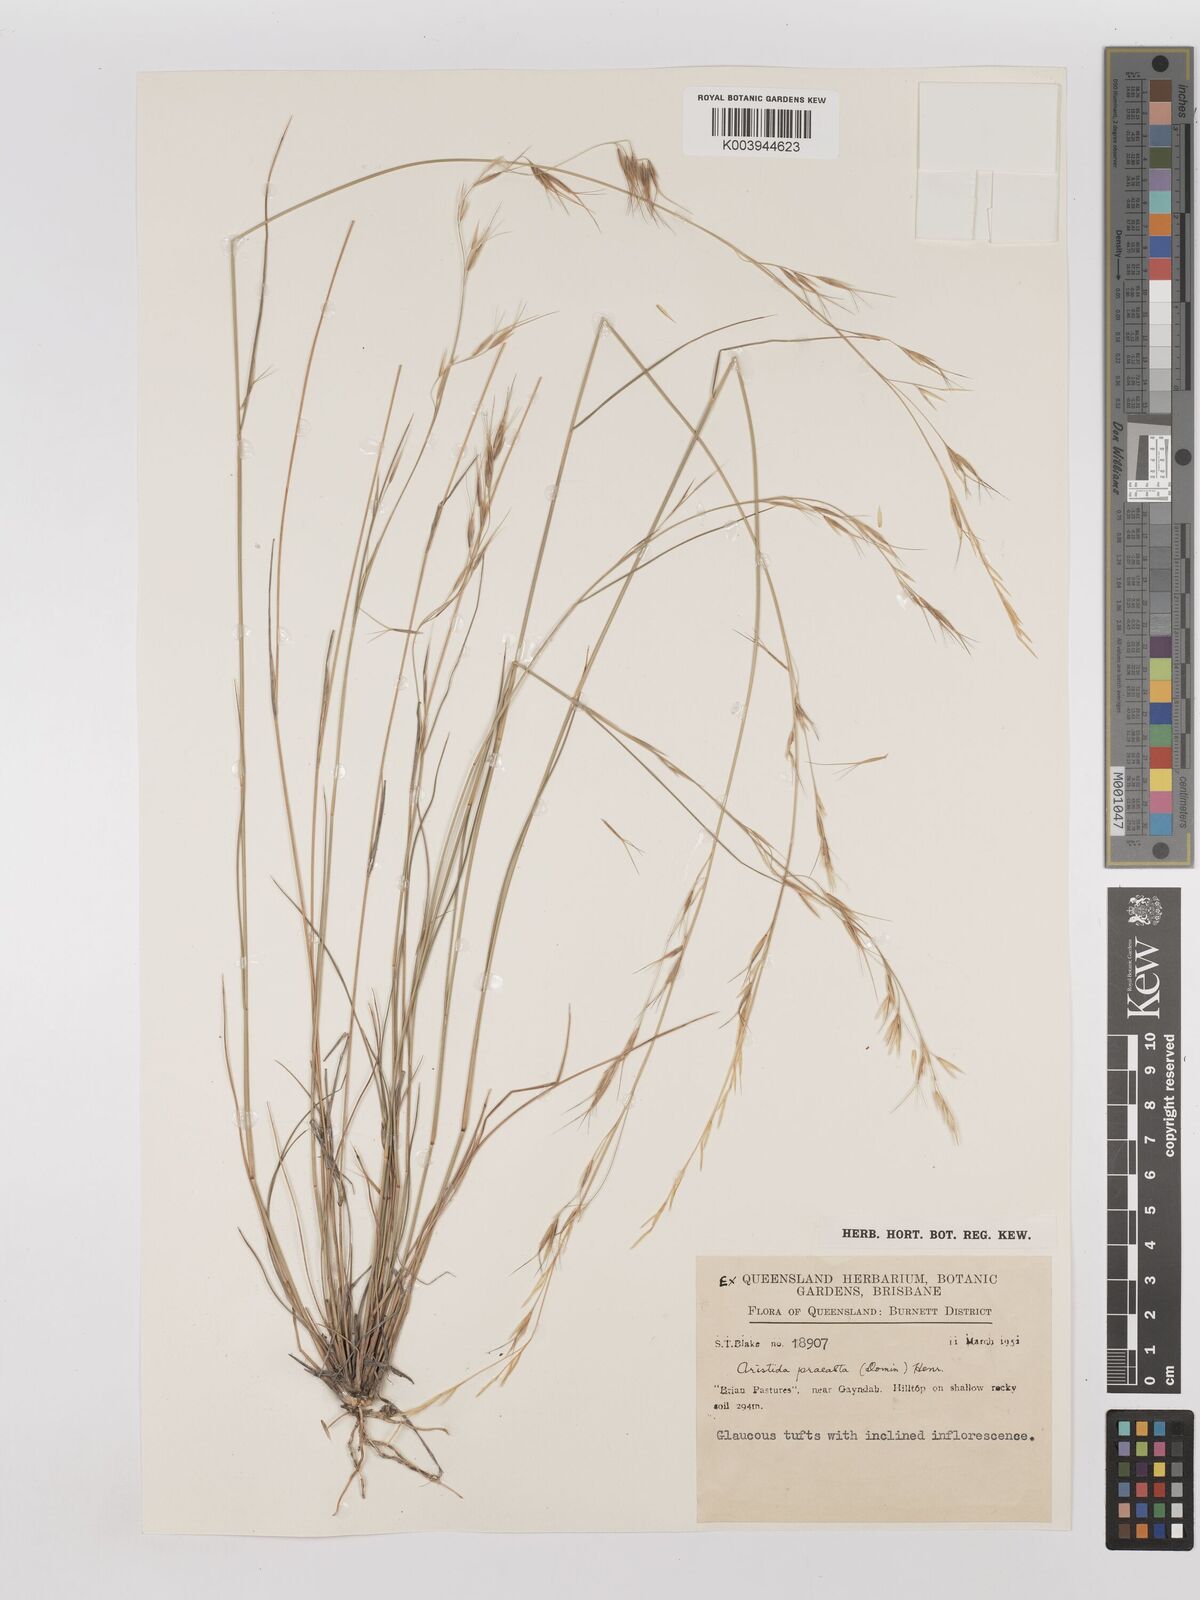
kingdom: Plantae
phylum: Tracheophyta
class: Liliopsida
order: Poales
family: Poaceae
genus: Aristida
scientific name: Aristida calycina
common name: Dark wire grass
